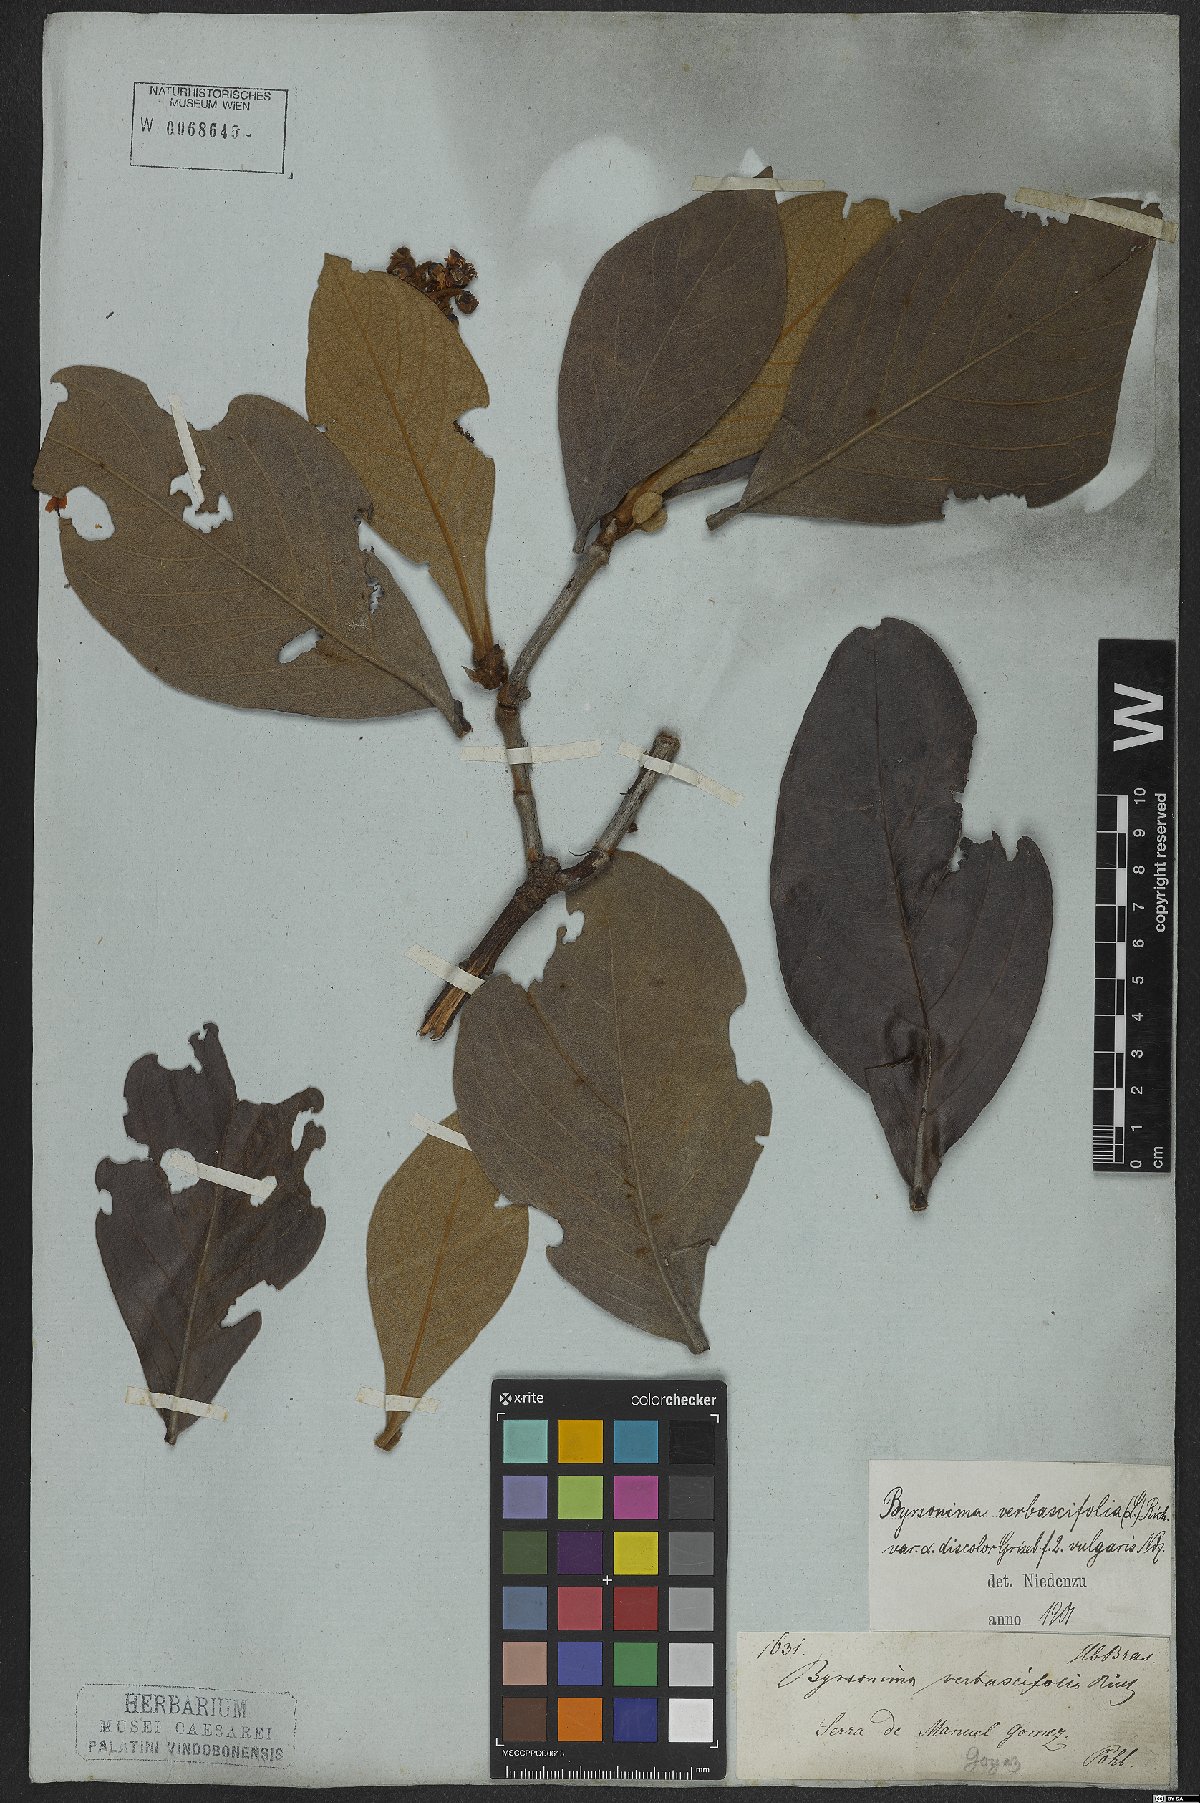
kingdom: Plantae
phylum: Tracheophyta
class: Magnoliopsida
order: Malpighiales
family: Malpighiaceae
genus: Byrsonima
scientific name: Byrsonima verbascifolia
